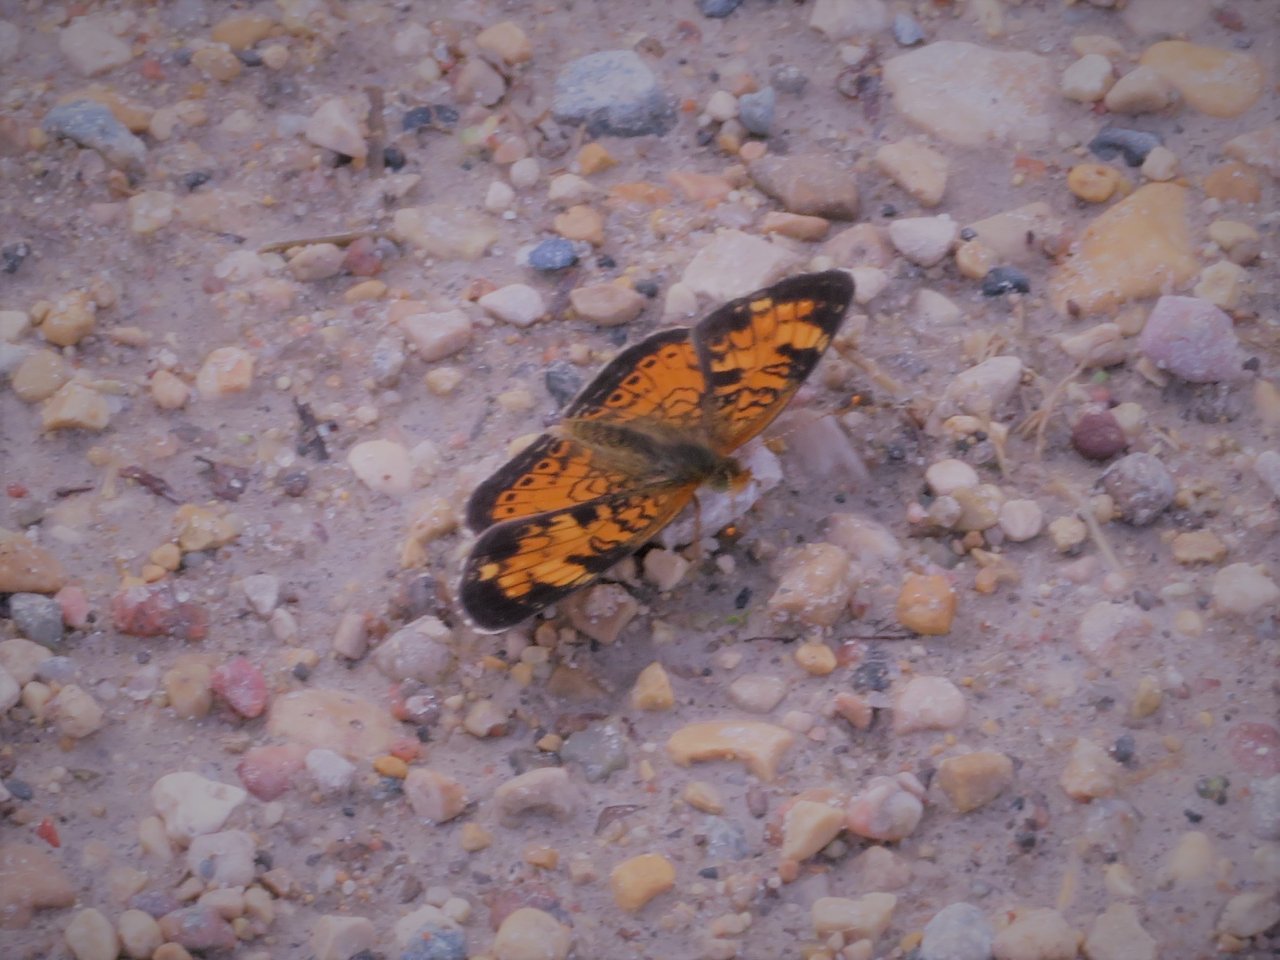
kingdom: Animalia
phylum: Arthropoda
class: Insecta
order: Lepidoptera
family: Nymphalidae
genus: Phyciodes
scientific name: Phyciodes tharos
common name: Northern Crescent
